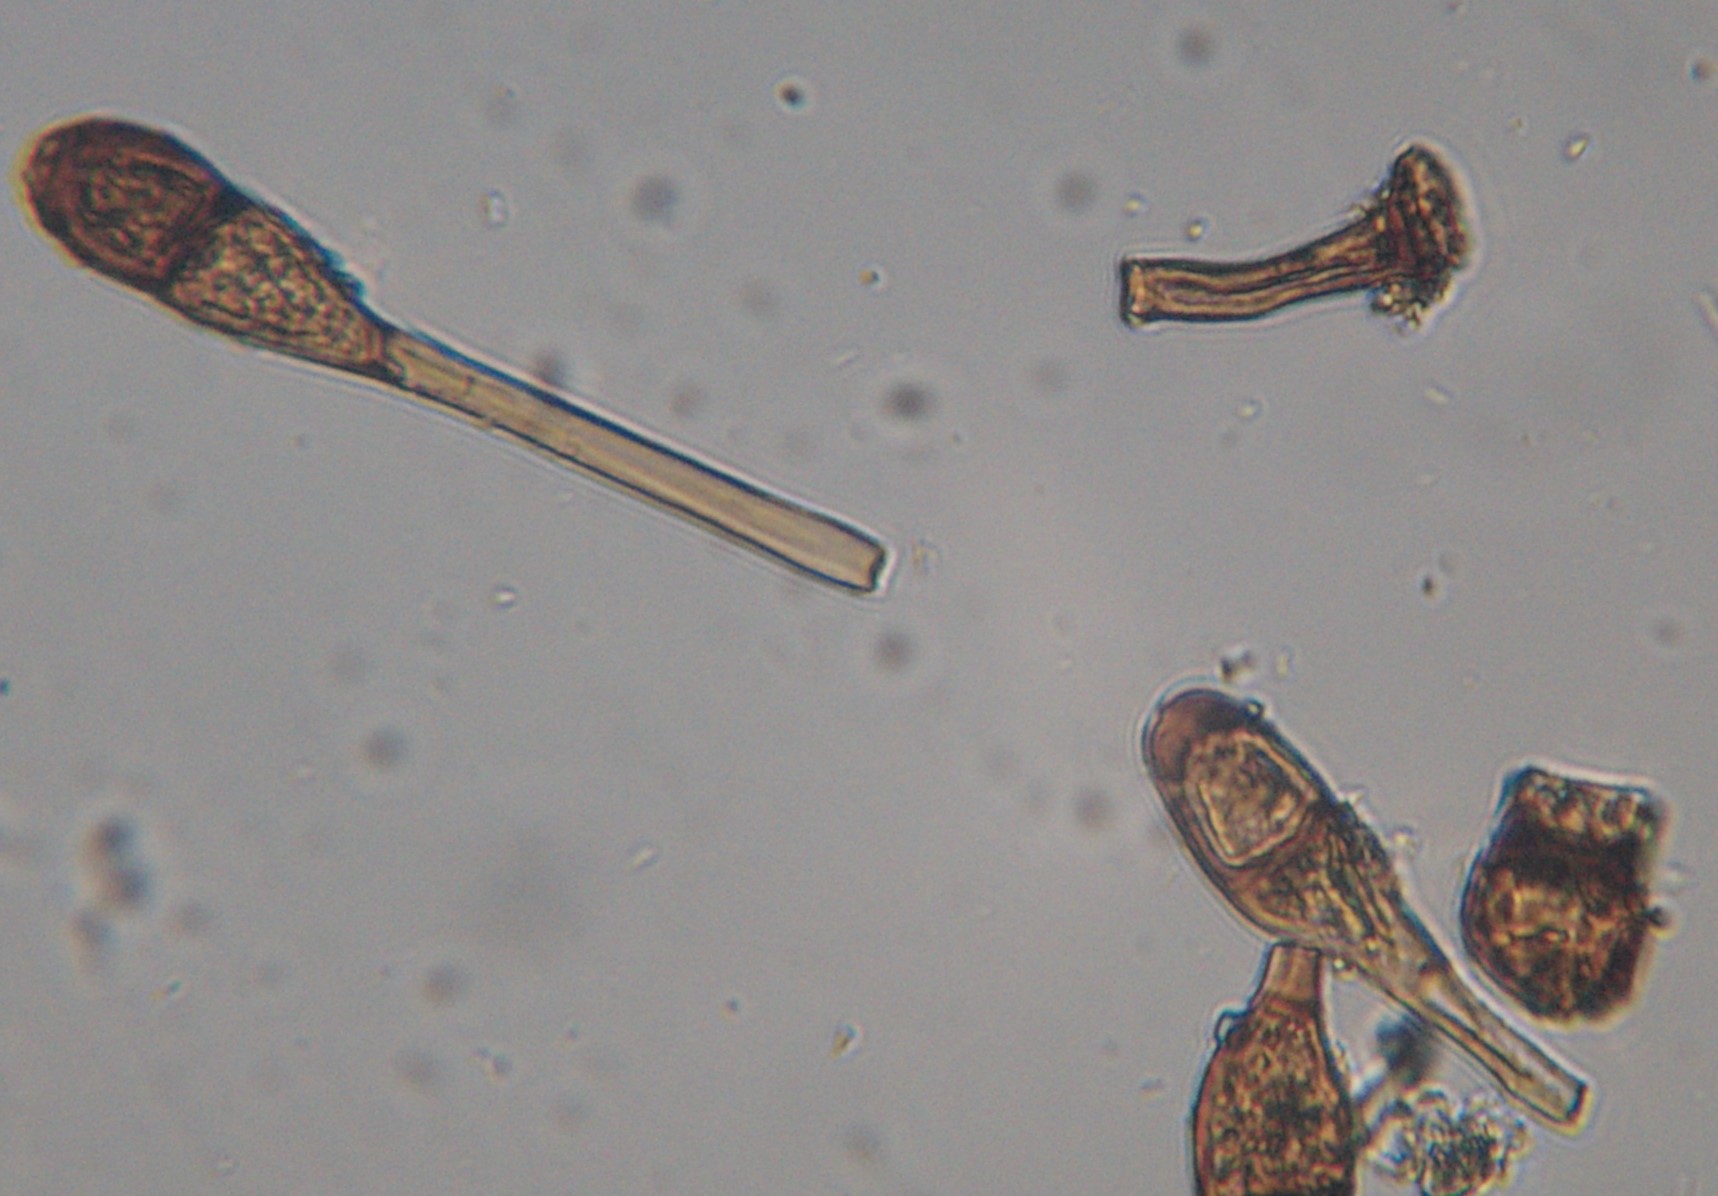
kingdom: Fungi
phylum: Basidiomycota
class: Pucciniomycetes
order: Pucciniales
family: Pucciniaceae
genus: Puccinia
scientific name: Puccinia magnusiana
